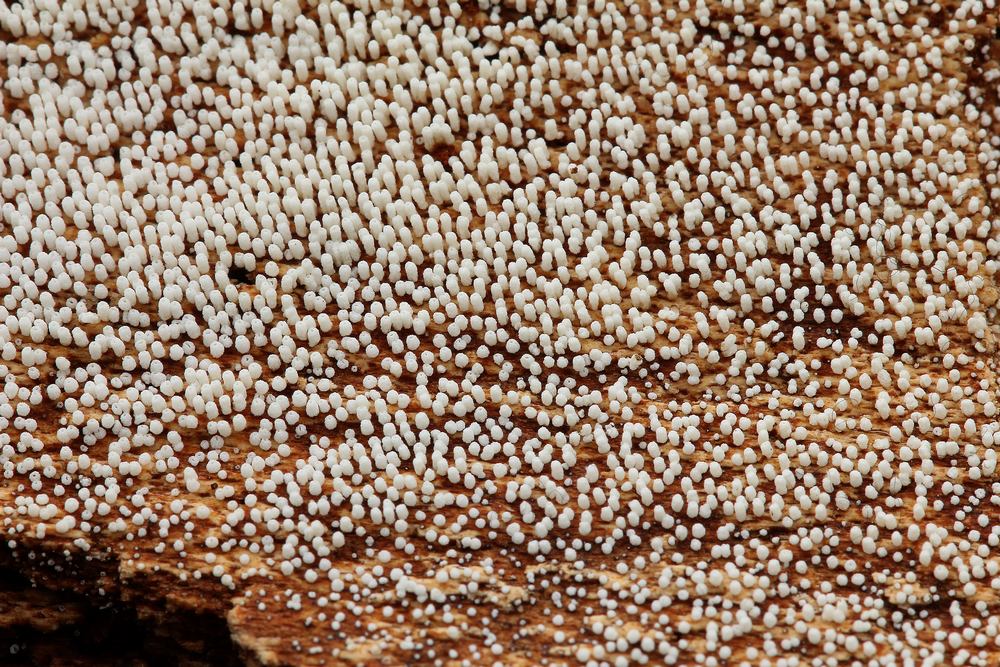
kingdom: Fungi
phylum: Basidiomycota
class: Agaricomycetes
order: Agaricales
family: Marasmiaceae
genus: Henningsomyces
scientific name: Henningsomyces puber
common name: dunet hængerør
